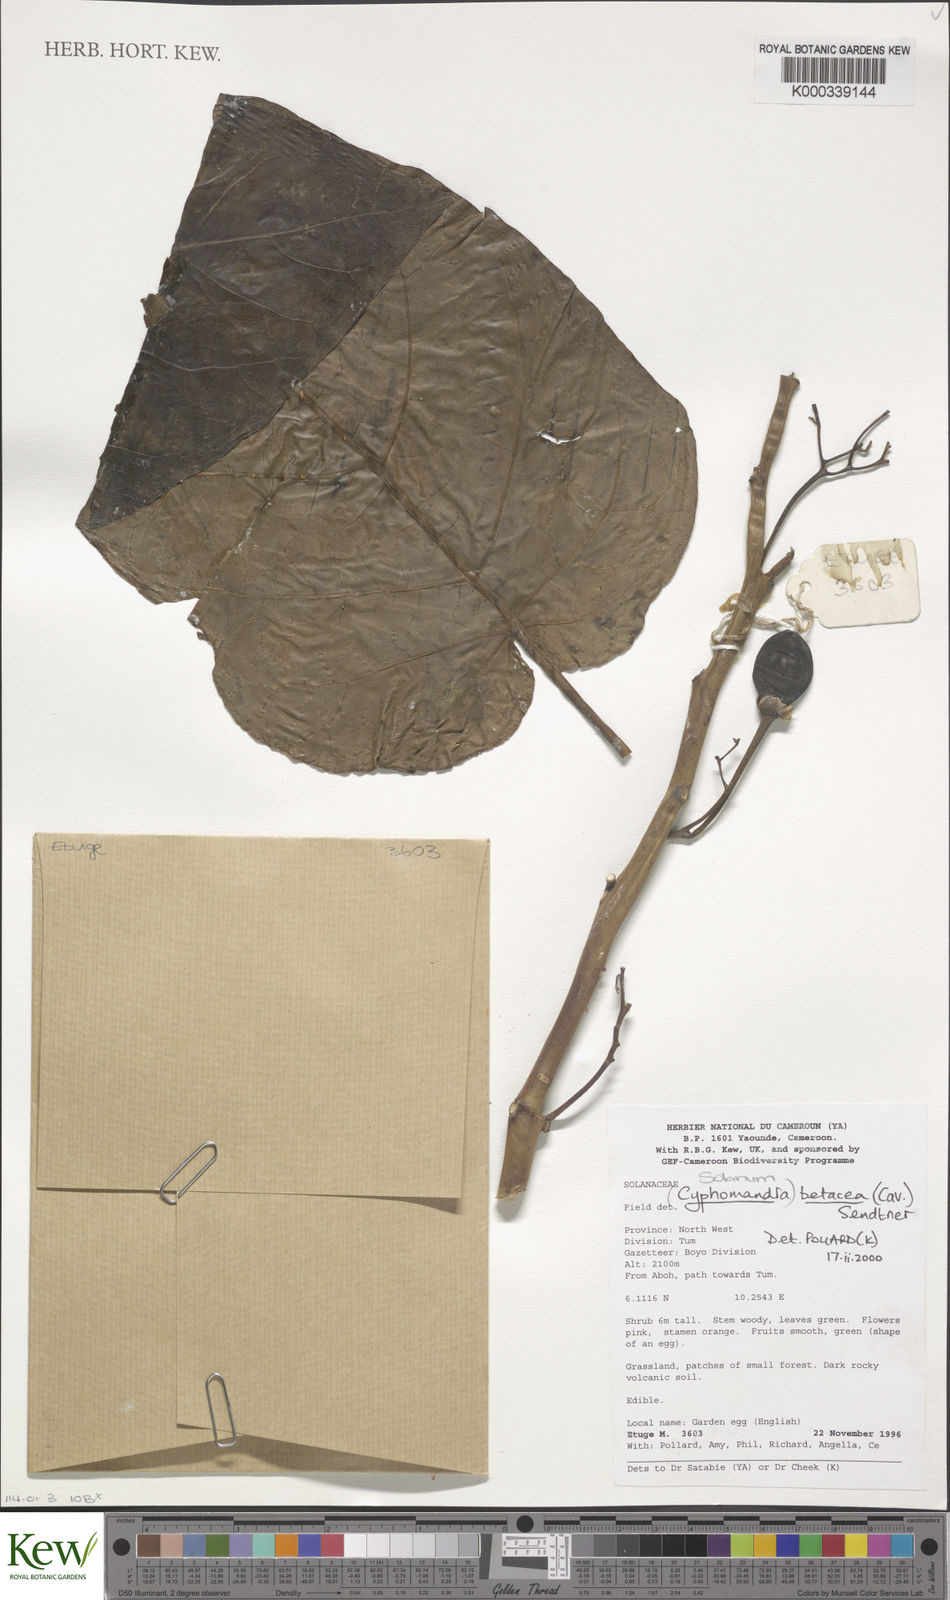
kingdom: Plantae
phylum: Tracheophyta
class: Magnoliopsida
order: Solanales
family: Solanaceae
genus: Solanum
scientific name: Solanum betaceum
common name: Tamarillo
